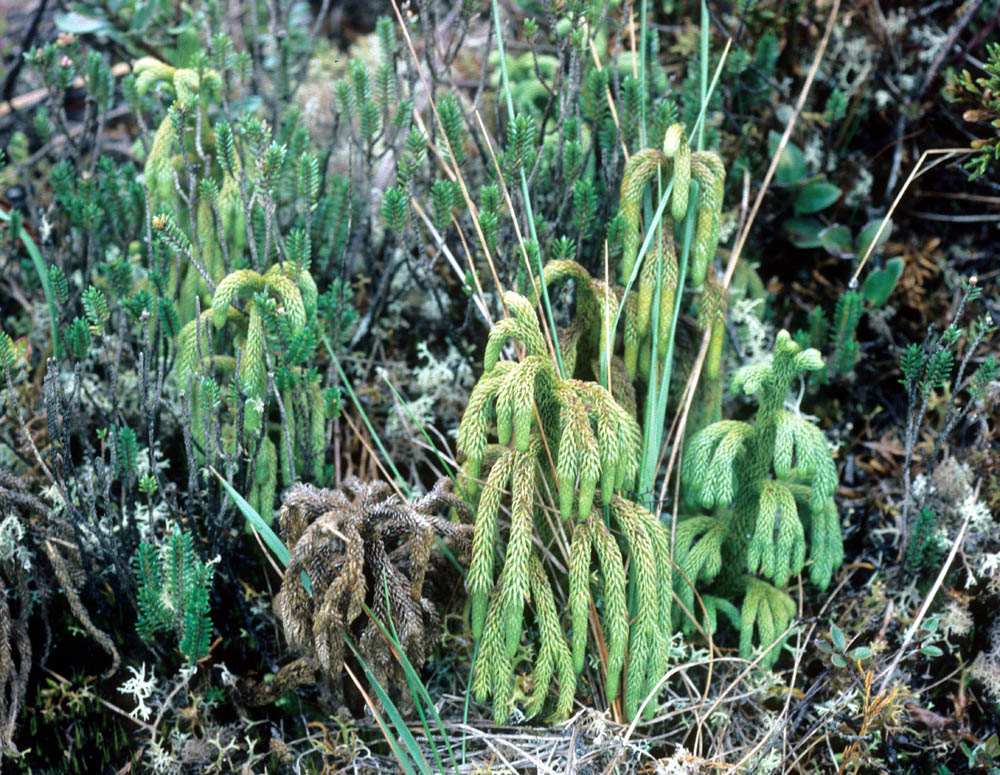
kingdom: Plantae
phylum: Tracheophyta
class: Lycopodiopsida
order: Lycopodiales
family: Lycopodiaceae
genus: Palhinhaea
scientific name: Palhinhaea pendulina
